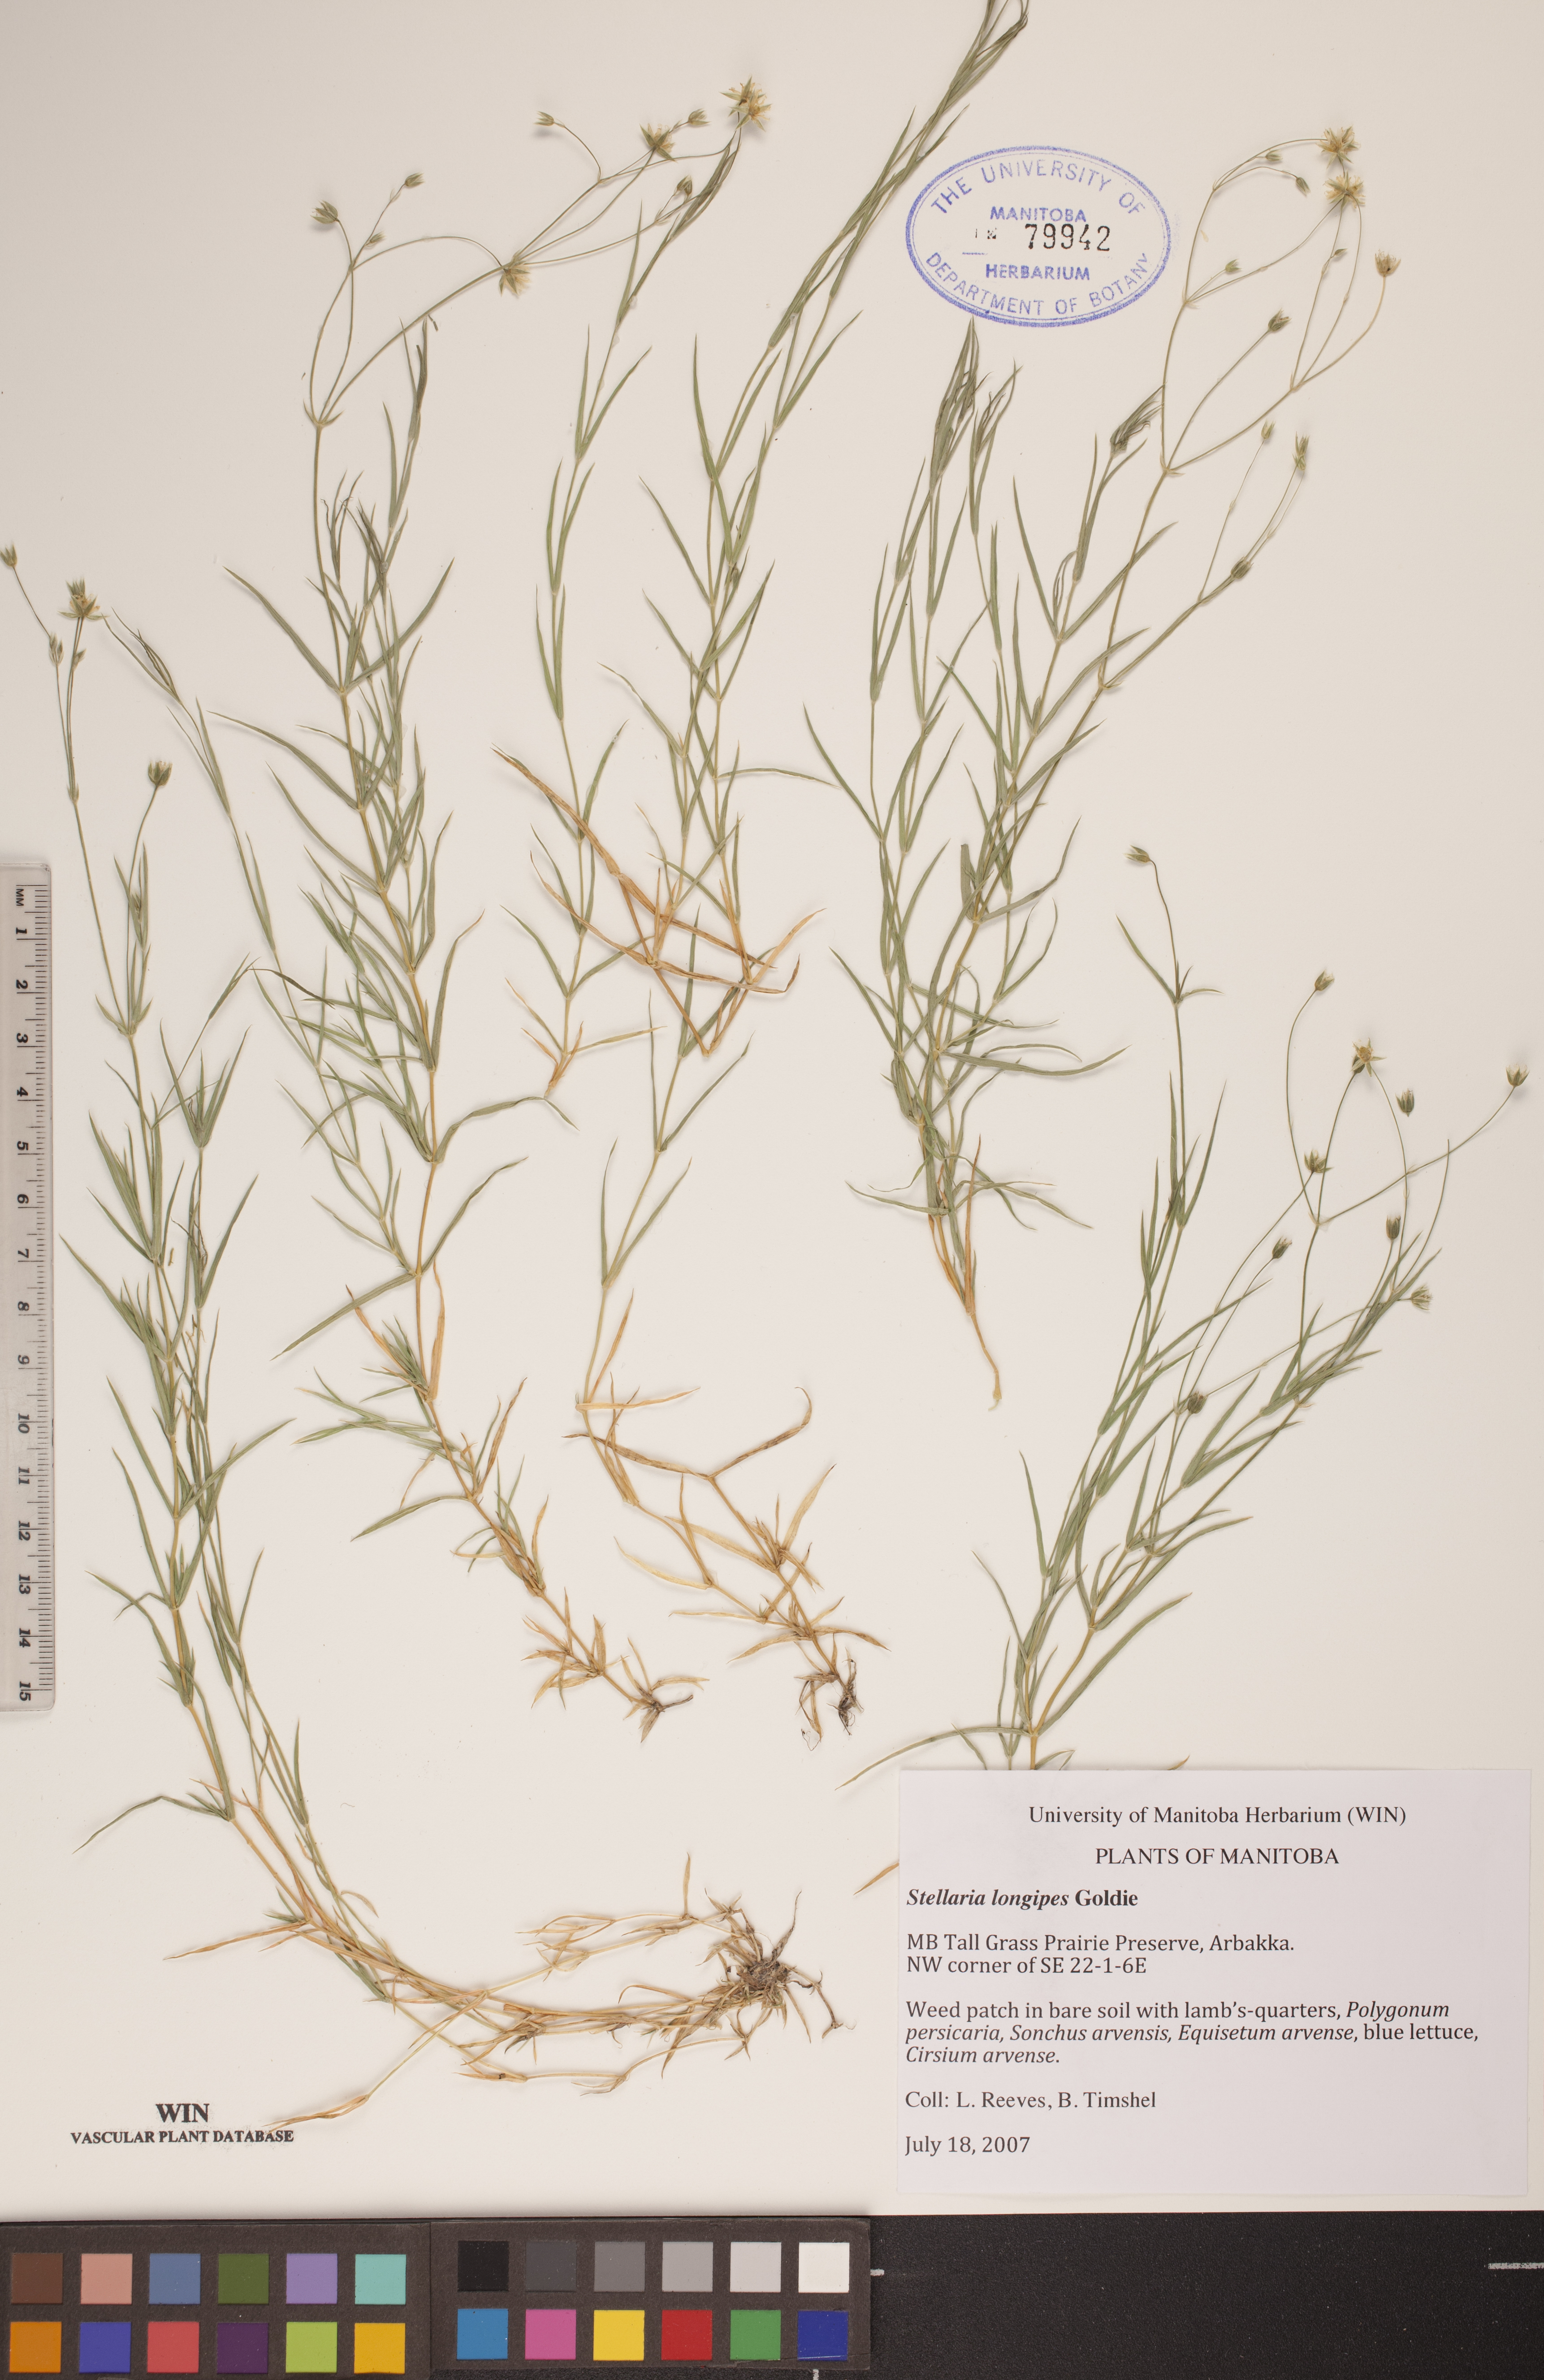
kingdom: Plantae
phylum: Tracheophyta
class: Magnoliopsida
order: Caryophyllales
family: Caryophyllaceae
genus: Stellaria
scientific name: Stellaria longipes
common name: Goldie's starwort
